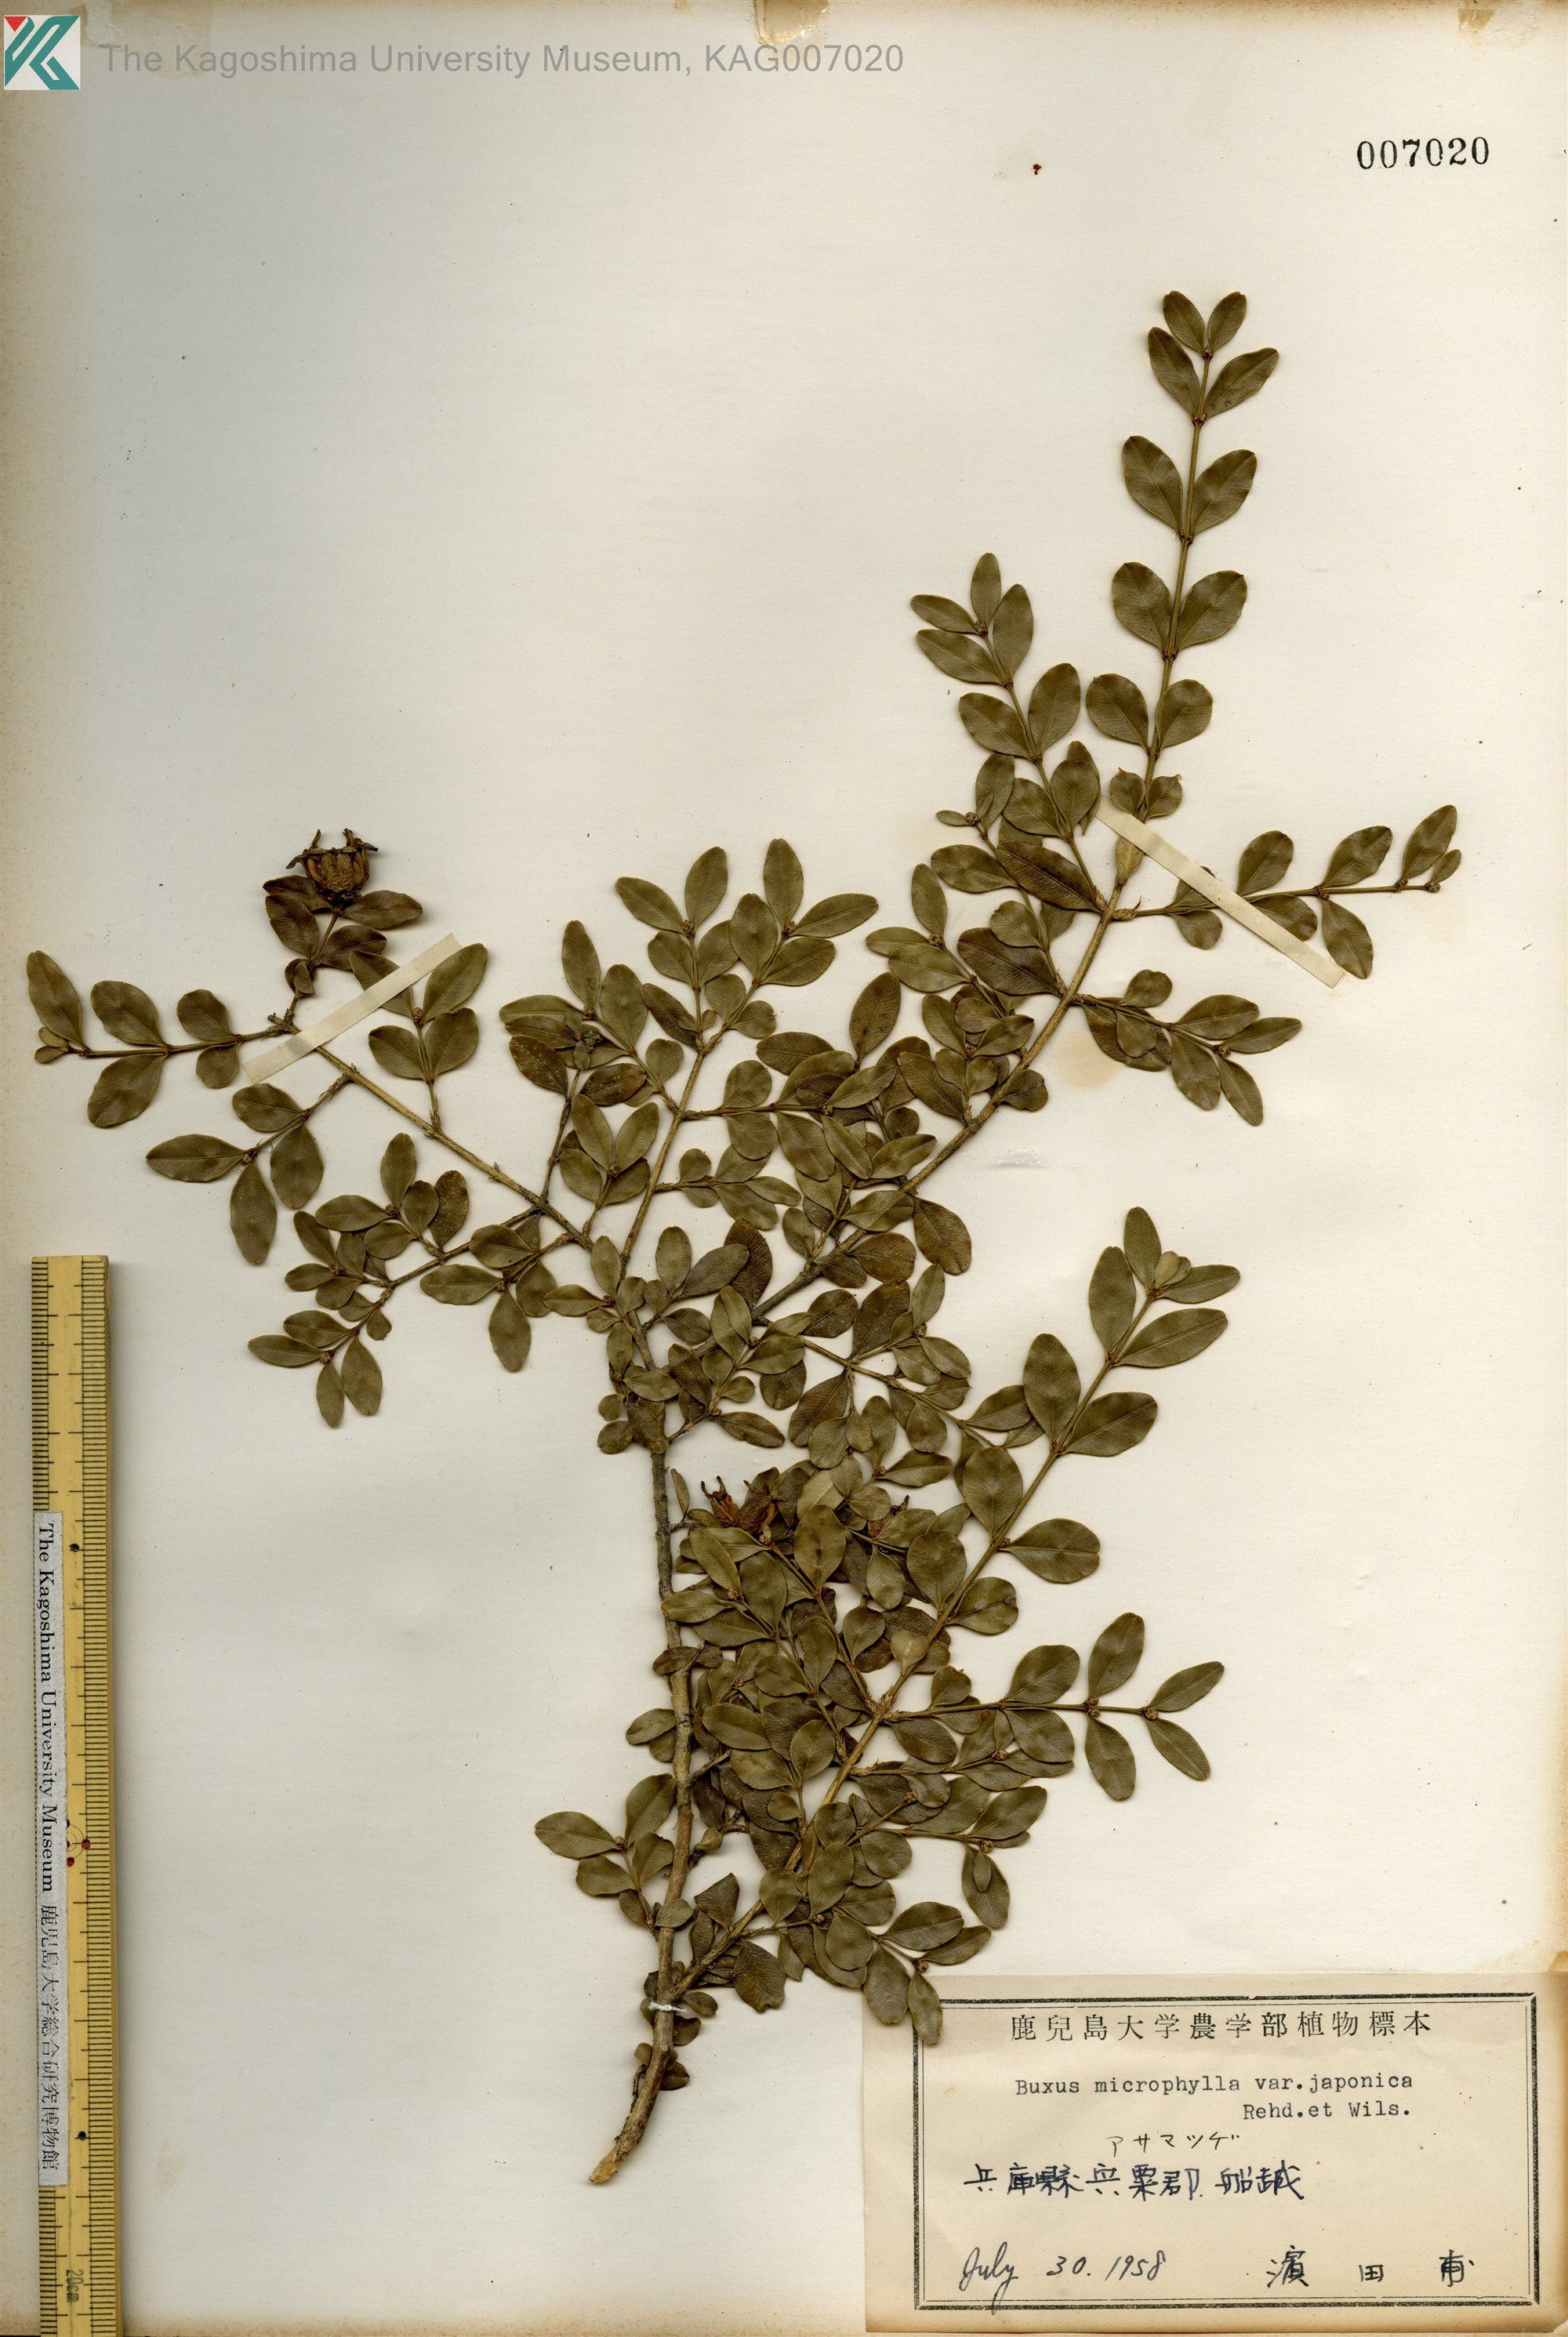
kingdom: Plantae
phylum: Tracheophyta
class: Magnoliopsida
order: Buxales
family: Buxaceae
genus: Buxus
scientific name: Buxus microphylla
